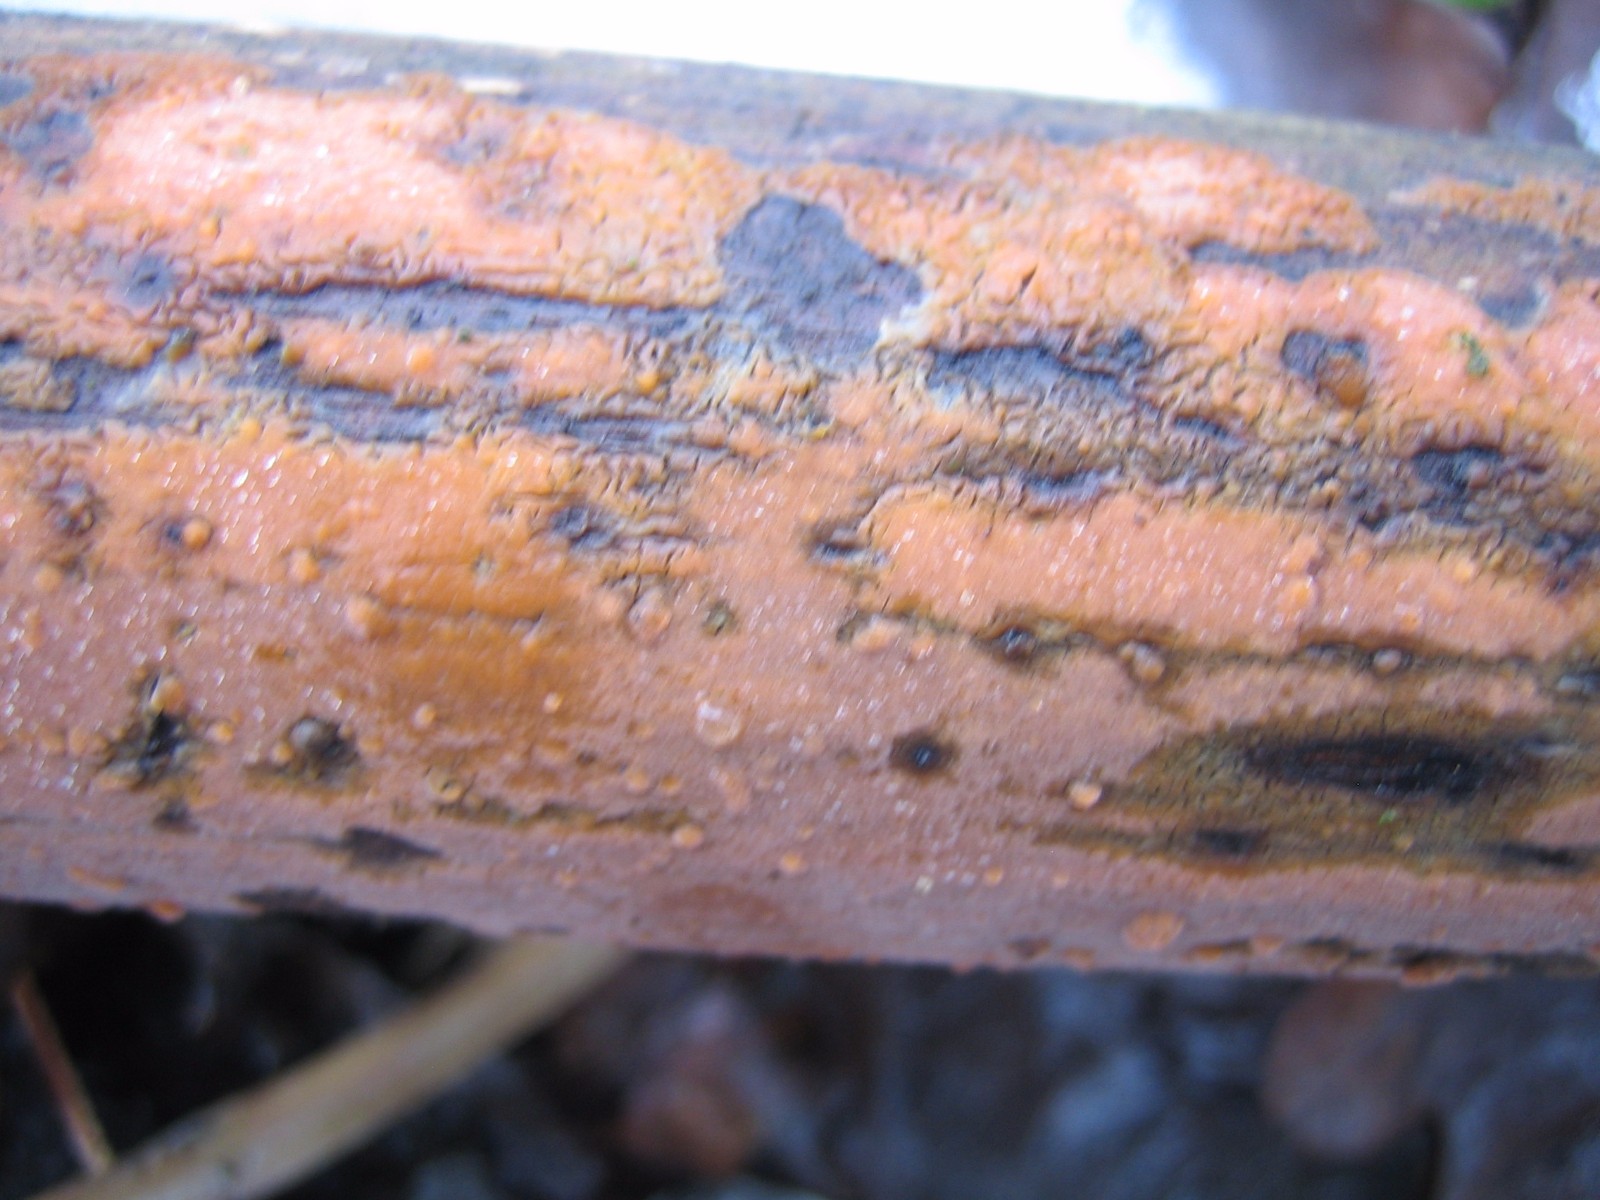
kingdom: Fungi
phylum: Basidiomycota
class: Agaricomycetes
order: Russulales
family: Peniophoraceae
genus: Peniophora
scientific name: Peniophora incarnata
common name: laksefarvet voksskind
